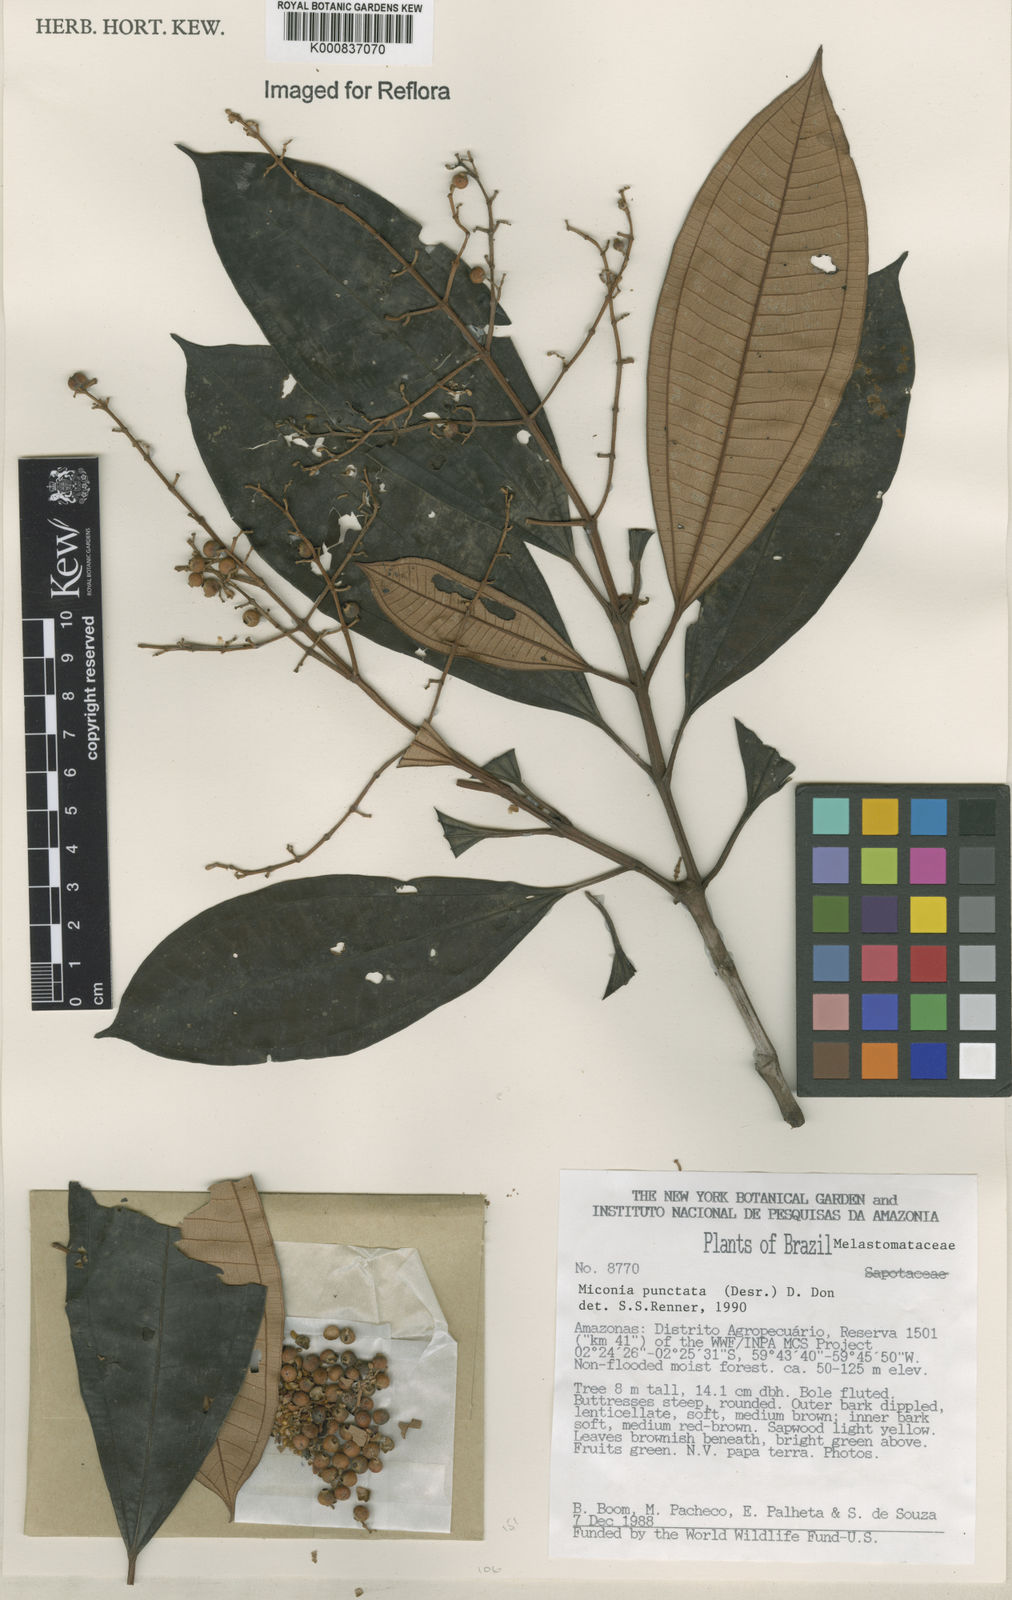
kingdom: Plantae
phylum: Tracheophyta
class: Magnoliopsida
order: Myrtales
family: Melastomataceae
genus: Miconia
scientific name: Miconia punctata
